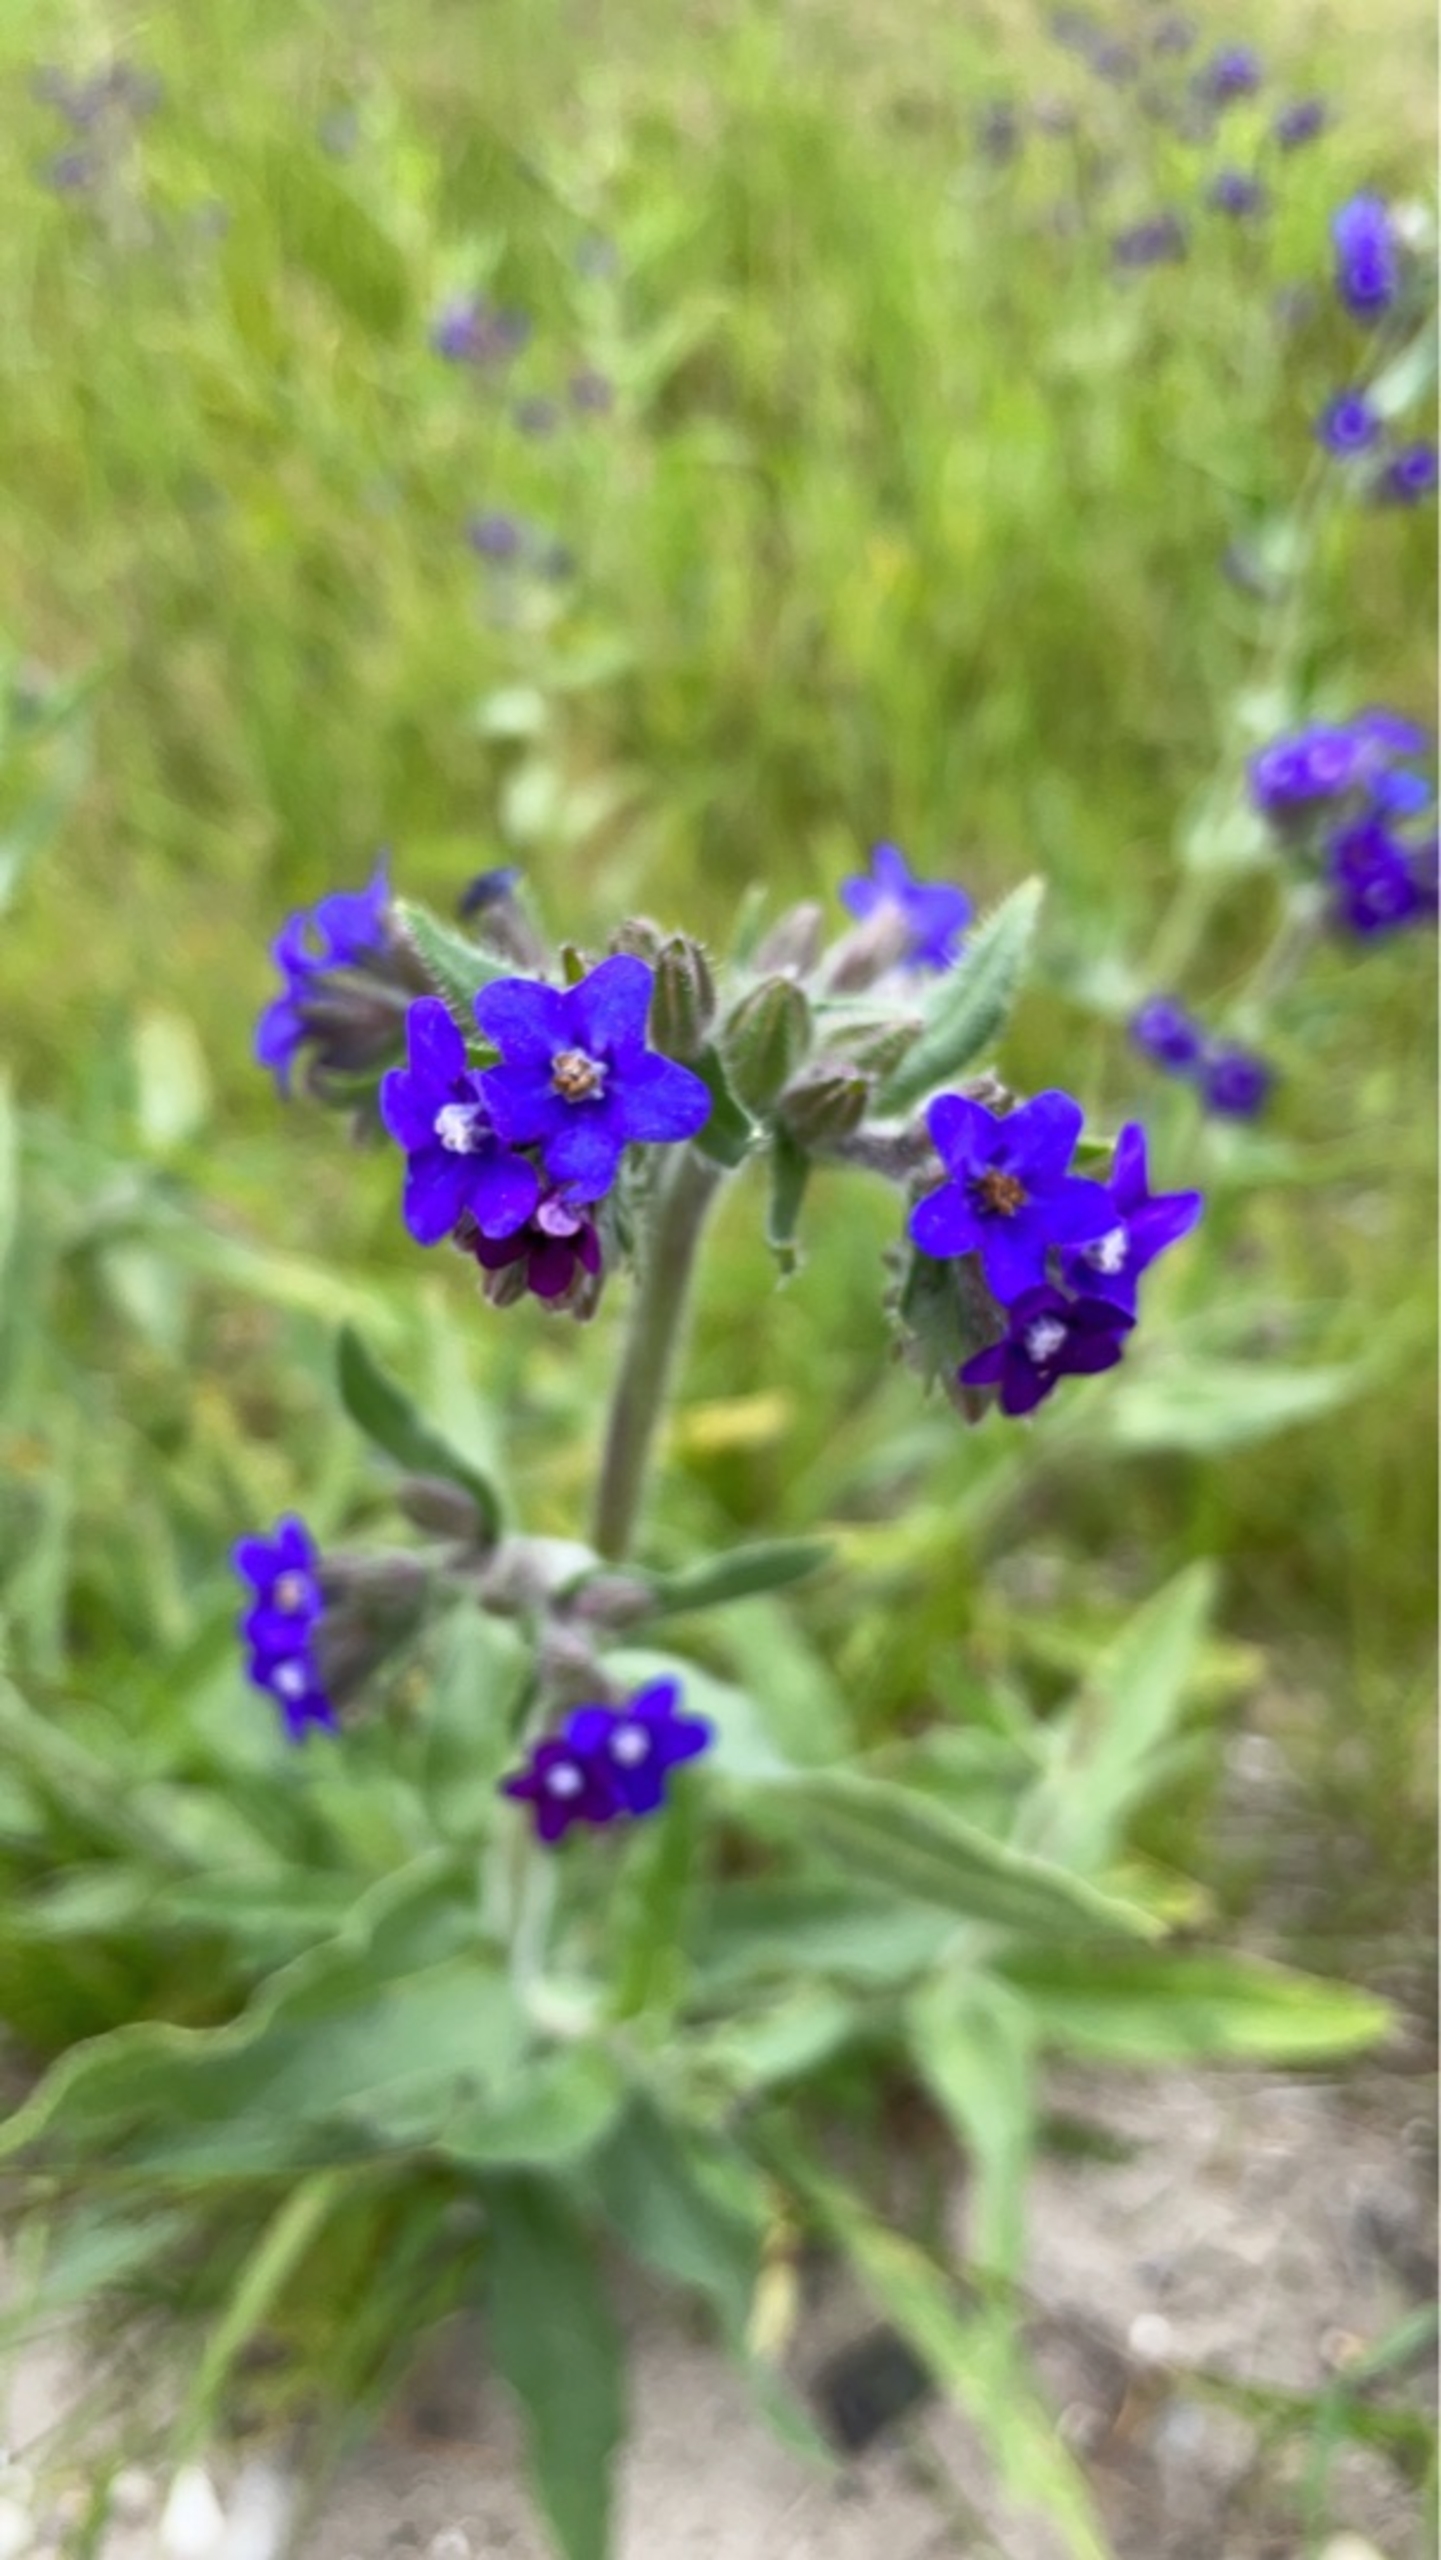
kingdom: Plantae
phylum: Tracheophyta
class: Magnoliopsida
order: Boraginales
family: Boraginaceae
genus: Anchusa
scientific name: Anchusa officinalis
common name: Læge-oksetunge
